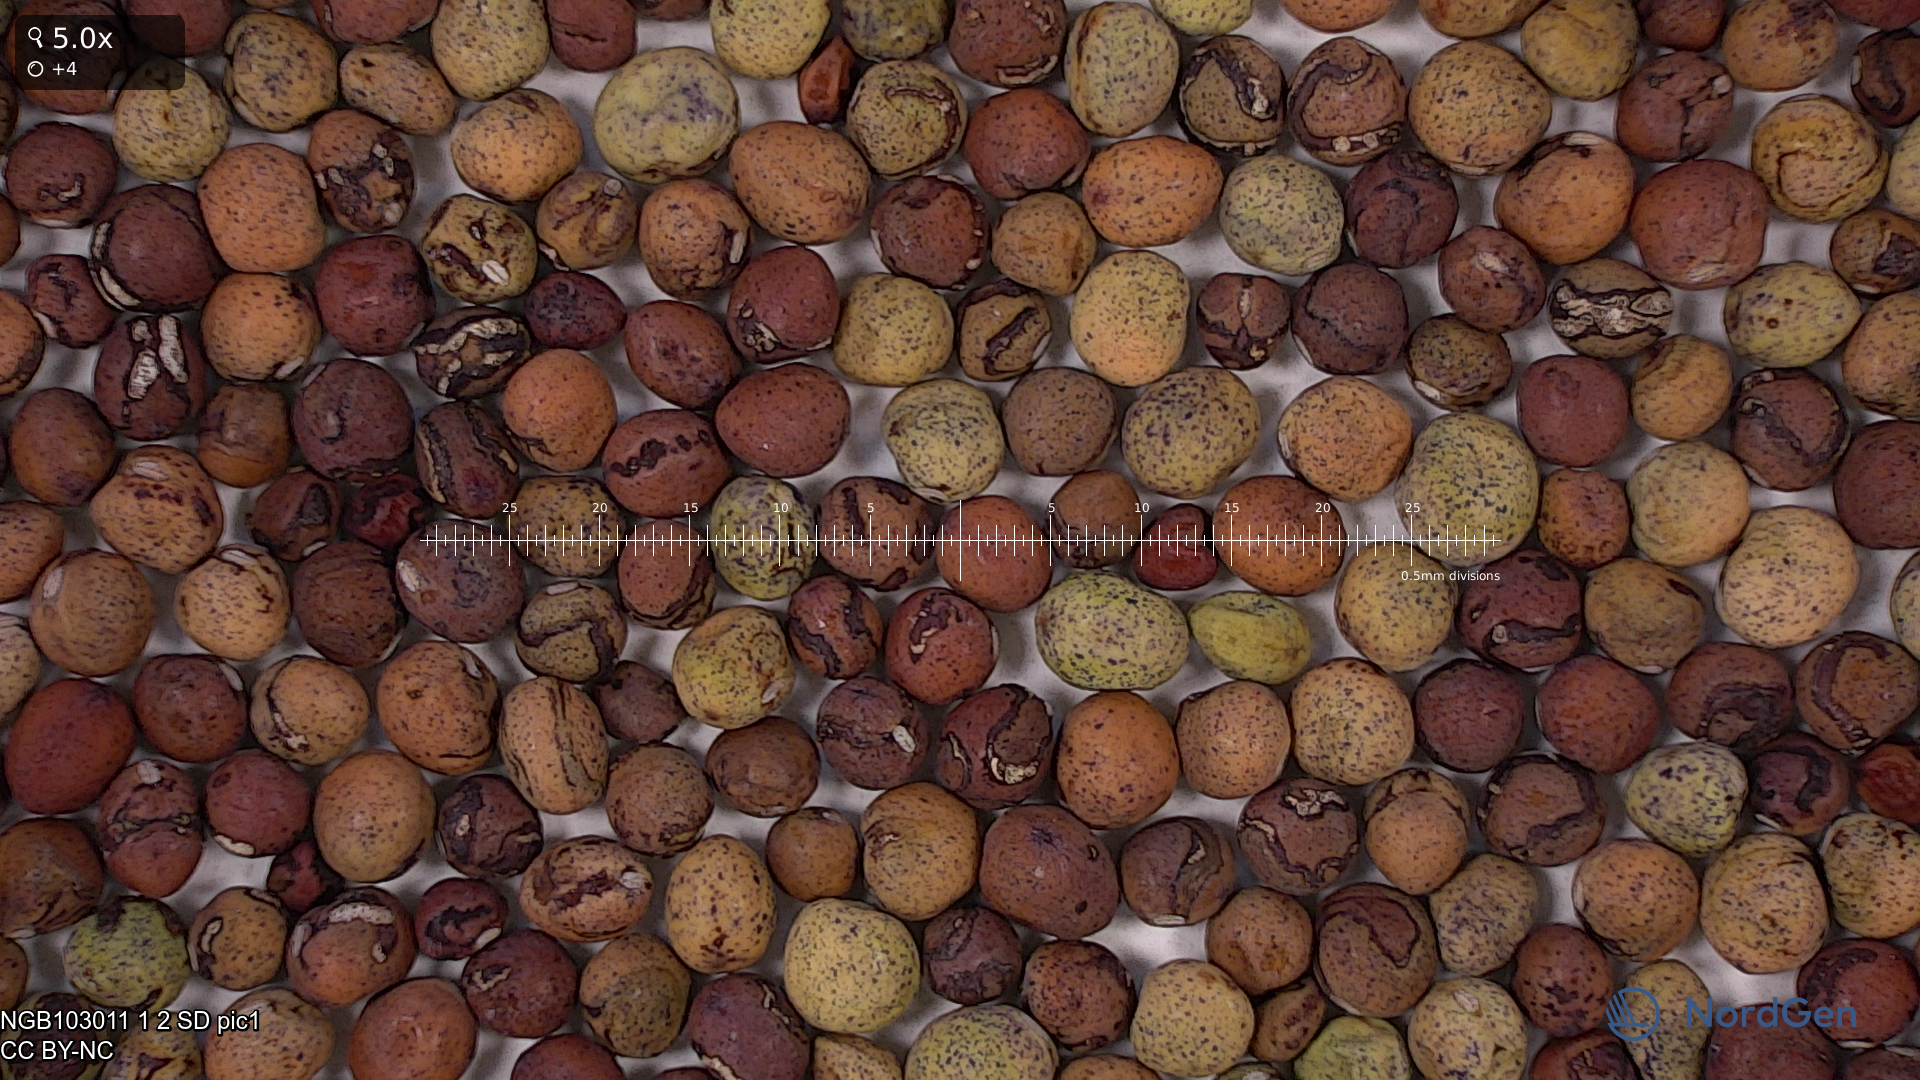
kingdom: Plantae
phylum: Tracheophyta
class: Magnoliopsida
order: Fabales
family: Fabaceae
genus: Lathyrus
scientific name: Lathyrus oleraceus
